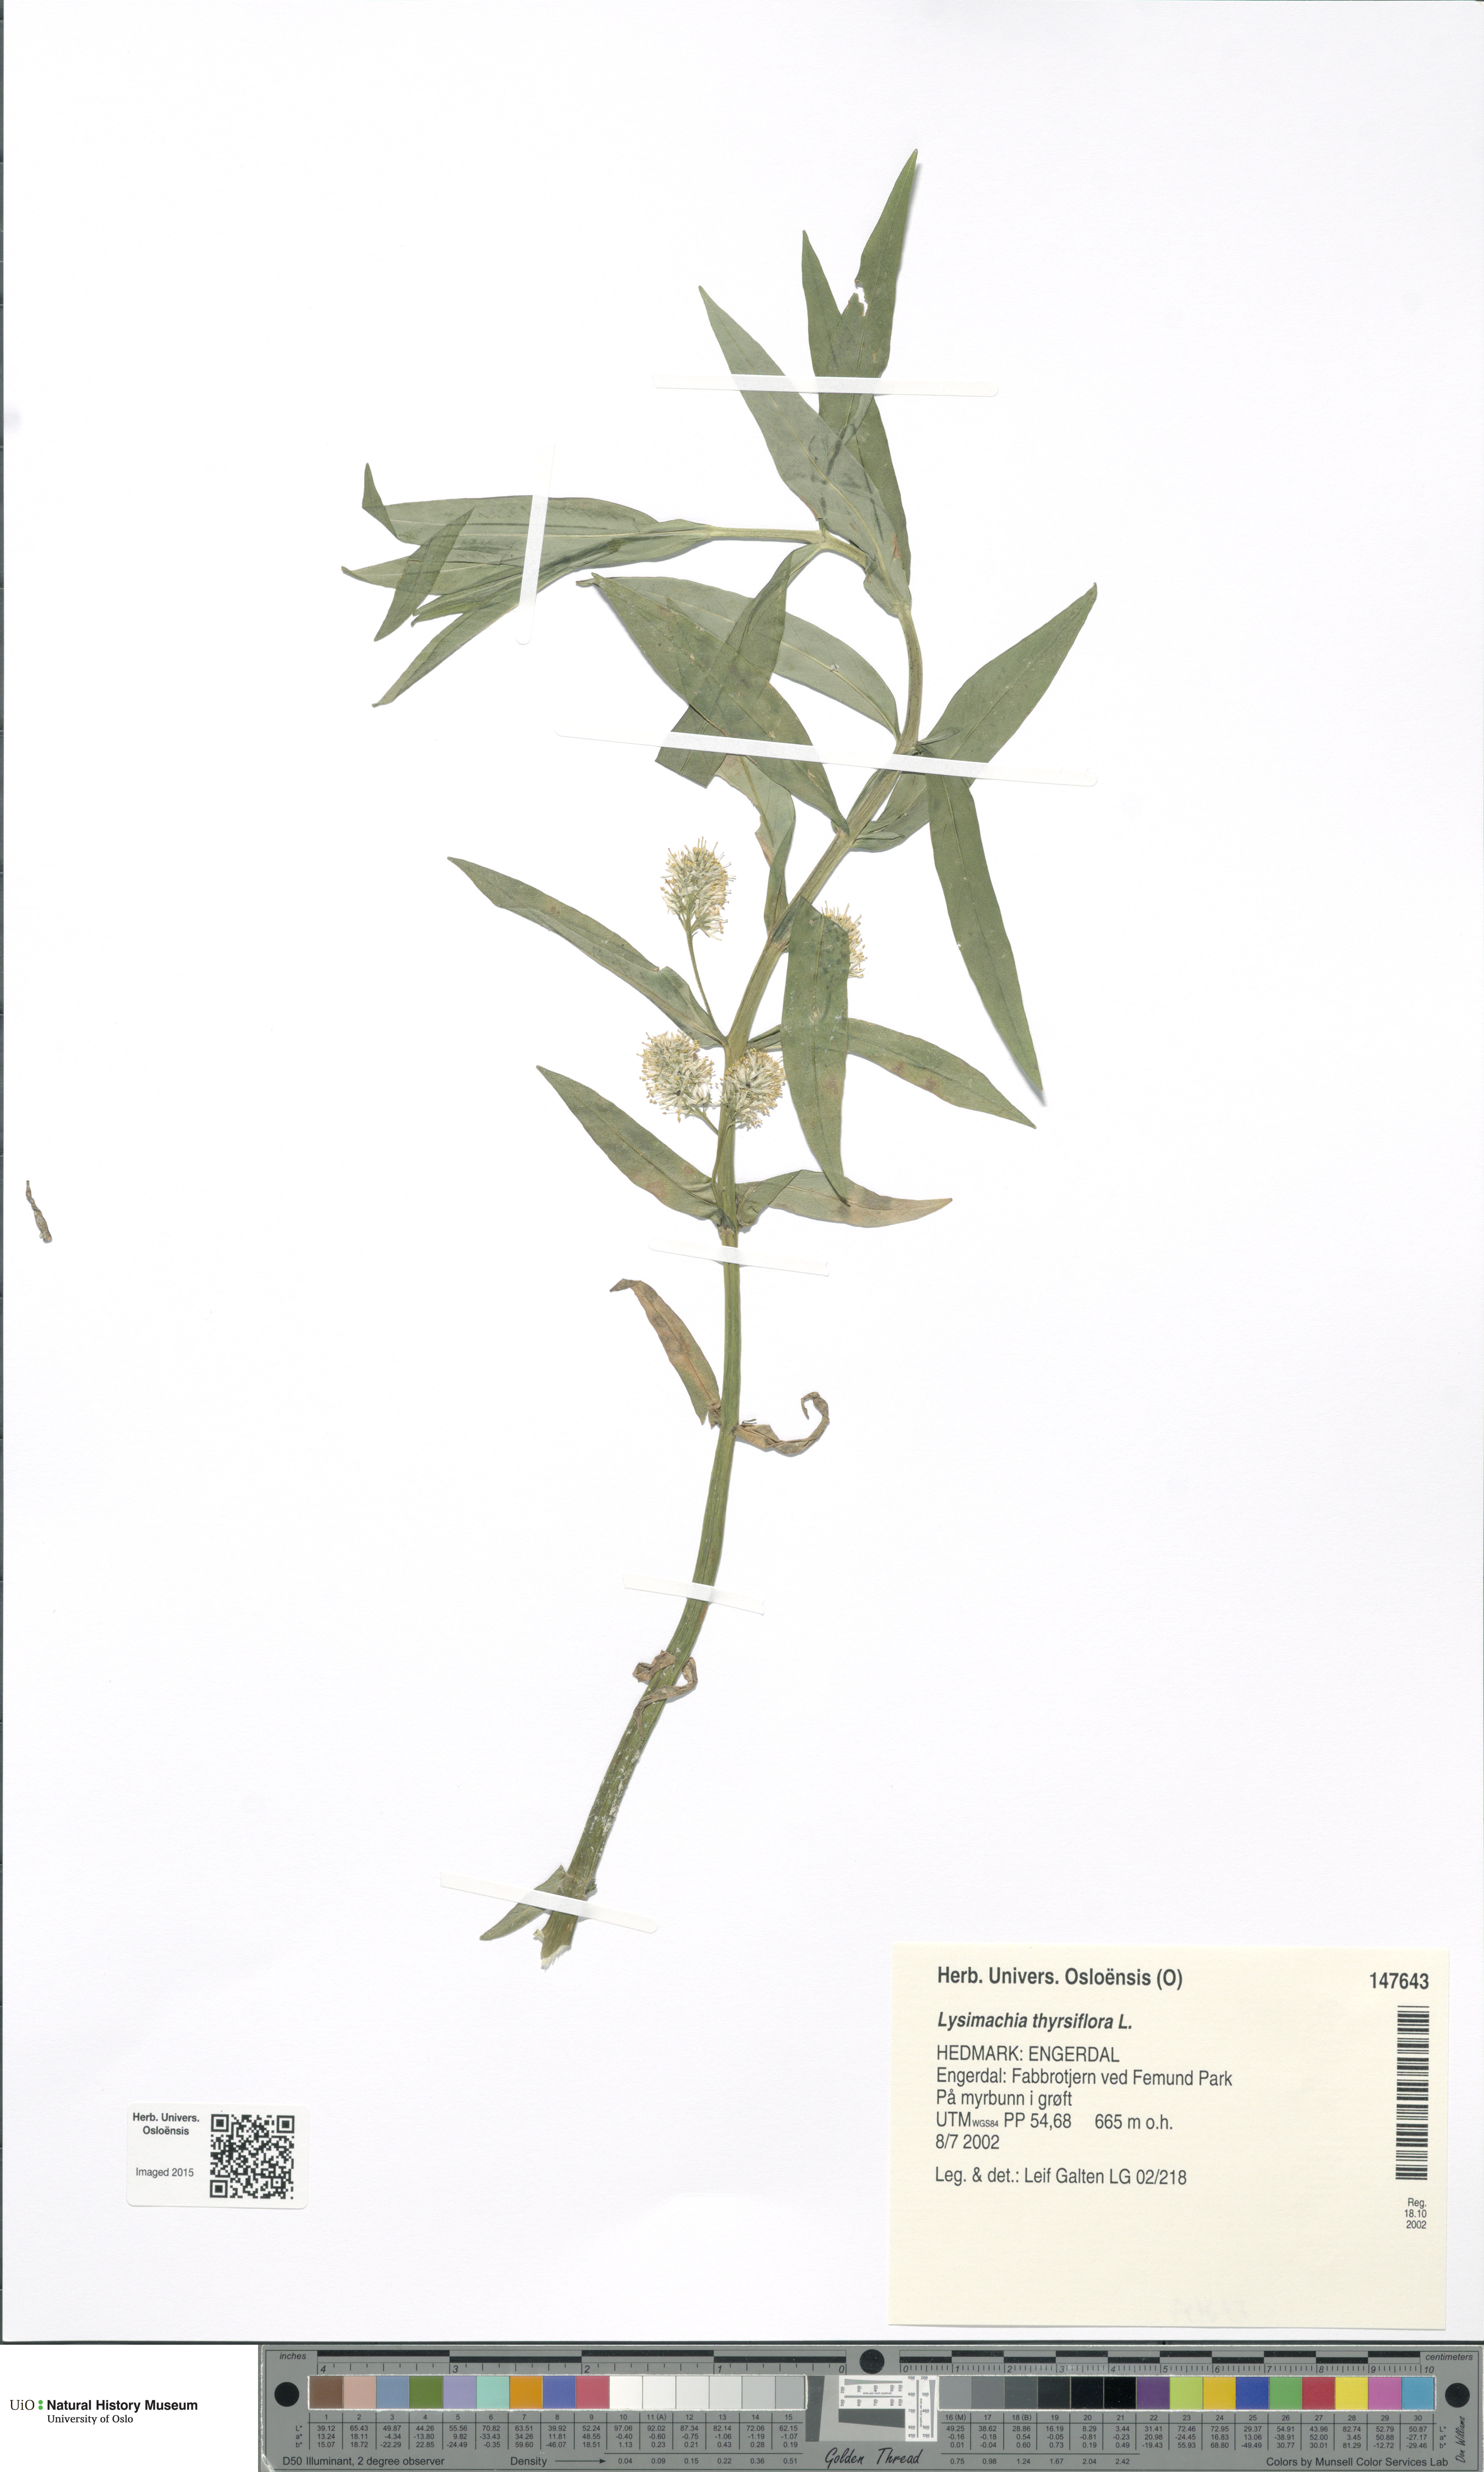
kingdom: Plantae
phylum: Tracheophyta
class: Magnoliopsida
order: Ericales
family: Primulaceae
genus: Lysimachia
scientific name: Lysimachia thyrsiflora
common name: Tufted loosestrife
